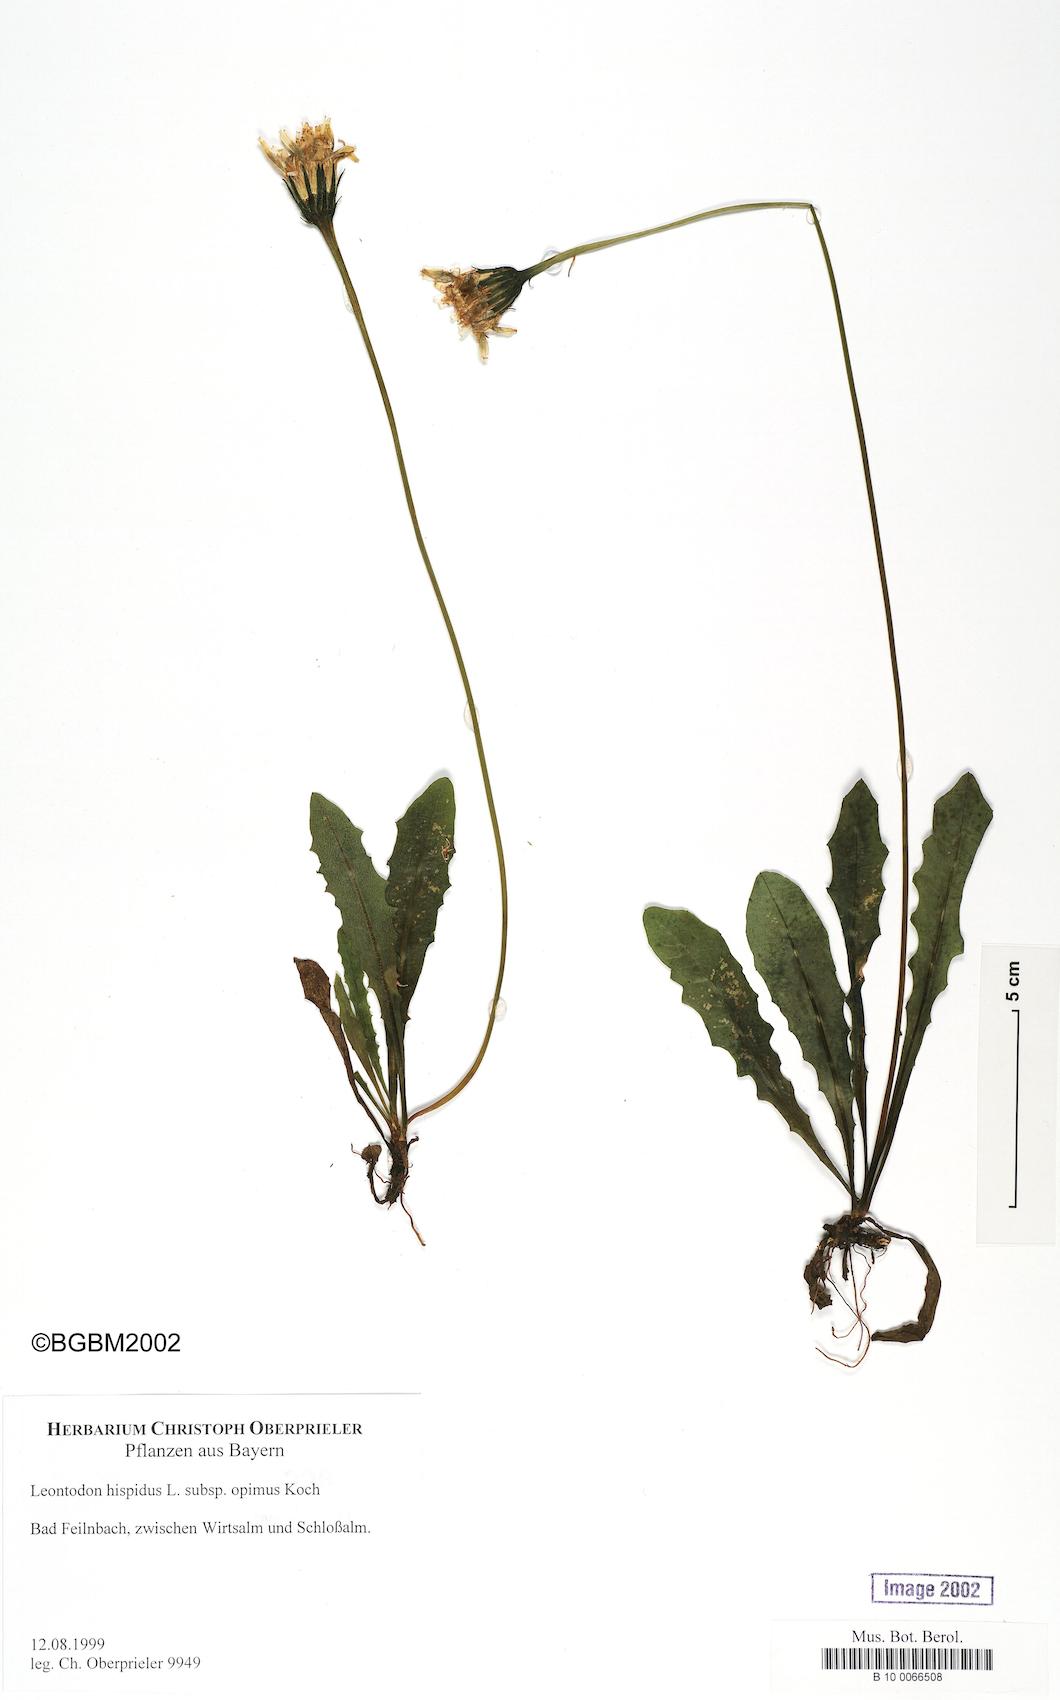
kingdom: Plantae
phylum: Tracheophyta
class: Magnoliopsida
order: Asterales
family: Asteraceae
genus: Leontodon
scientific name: Leontodon hispidus
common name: Rough hawkbit
